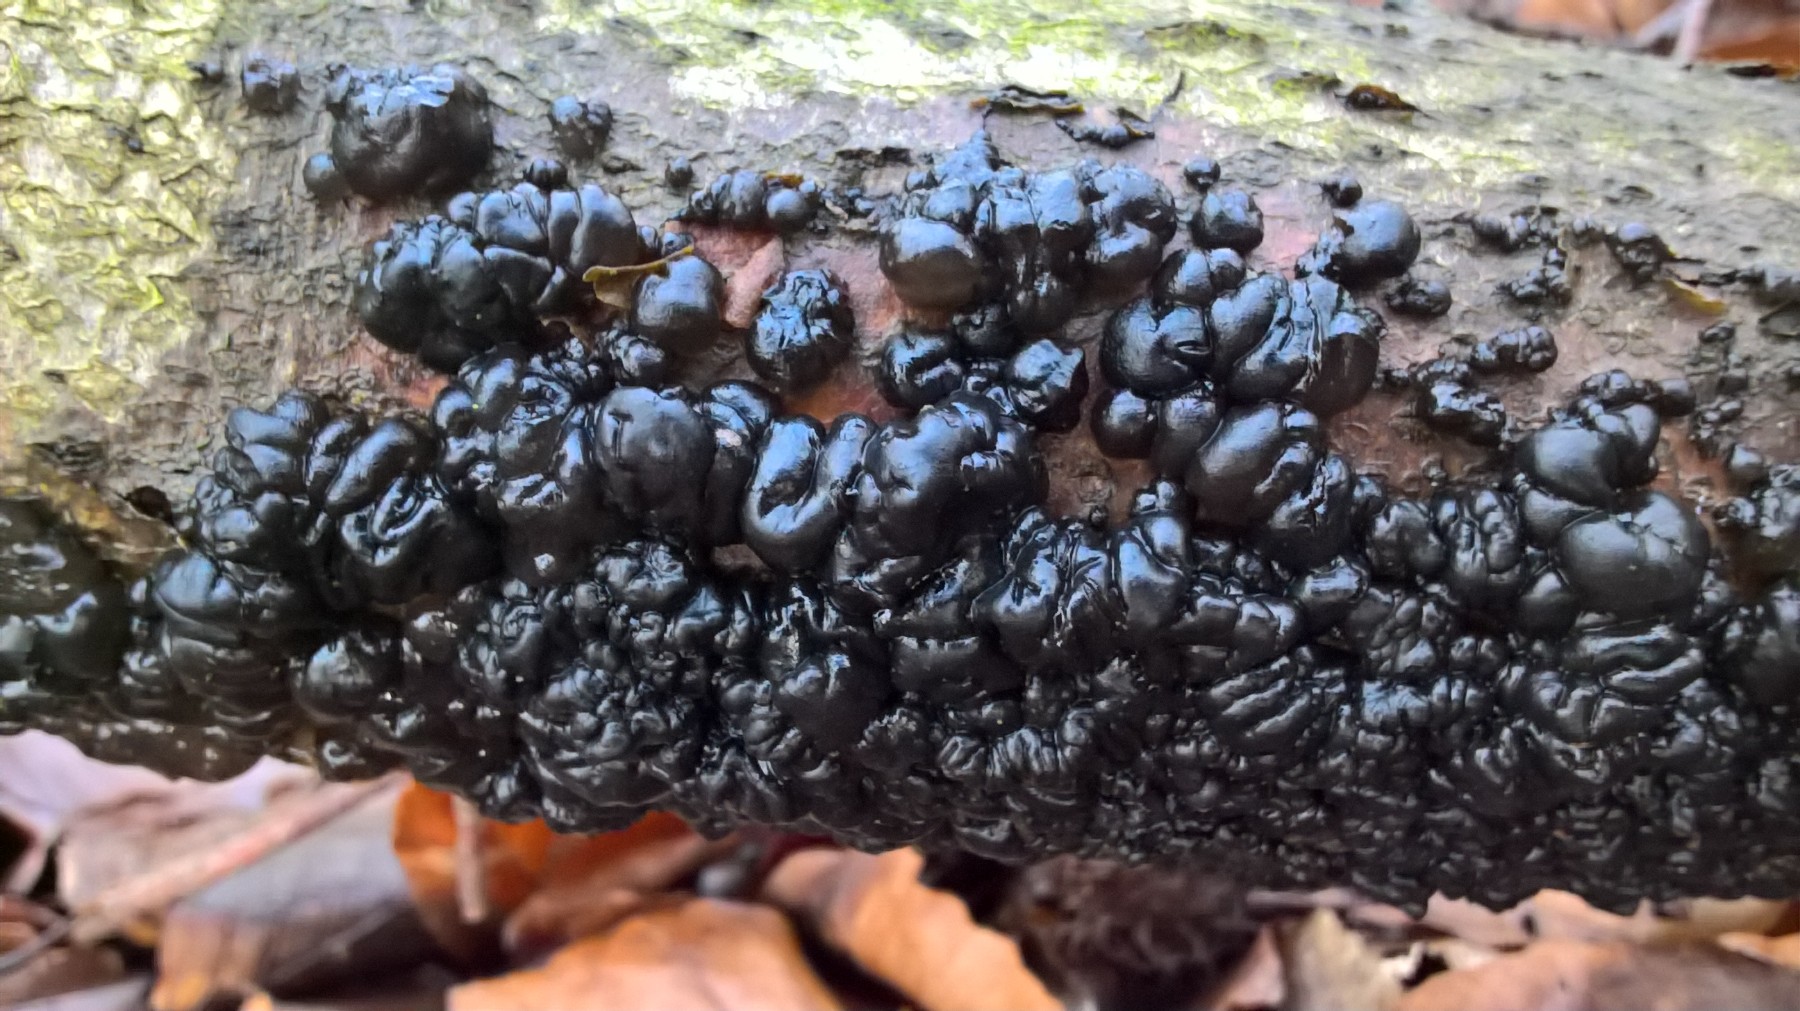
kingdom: Fungi
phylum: Basidiomycota
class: Agaricomycetes
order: Auriculariales
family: Auriculariaceae
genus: Exidia
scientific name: Exidia nigricans
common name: almindelig bævretop
